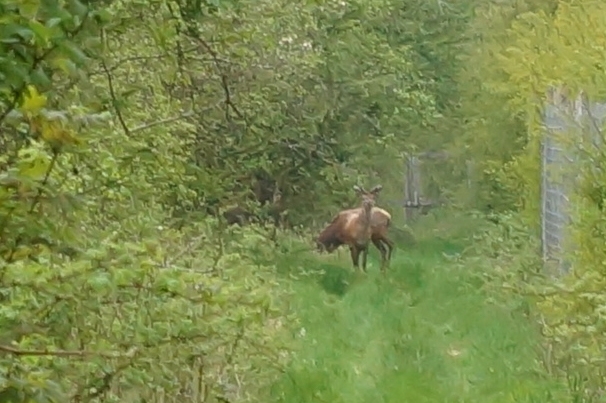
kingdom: Animalia
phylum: Chordata
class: Mammalia
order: Artiodactyla
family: Cervidae
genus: Cervus
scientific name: Cervus elaphus
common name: Krondyr
